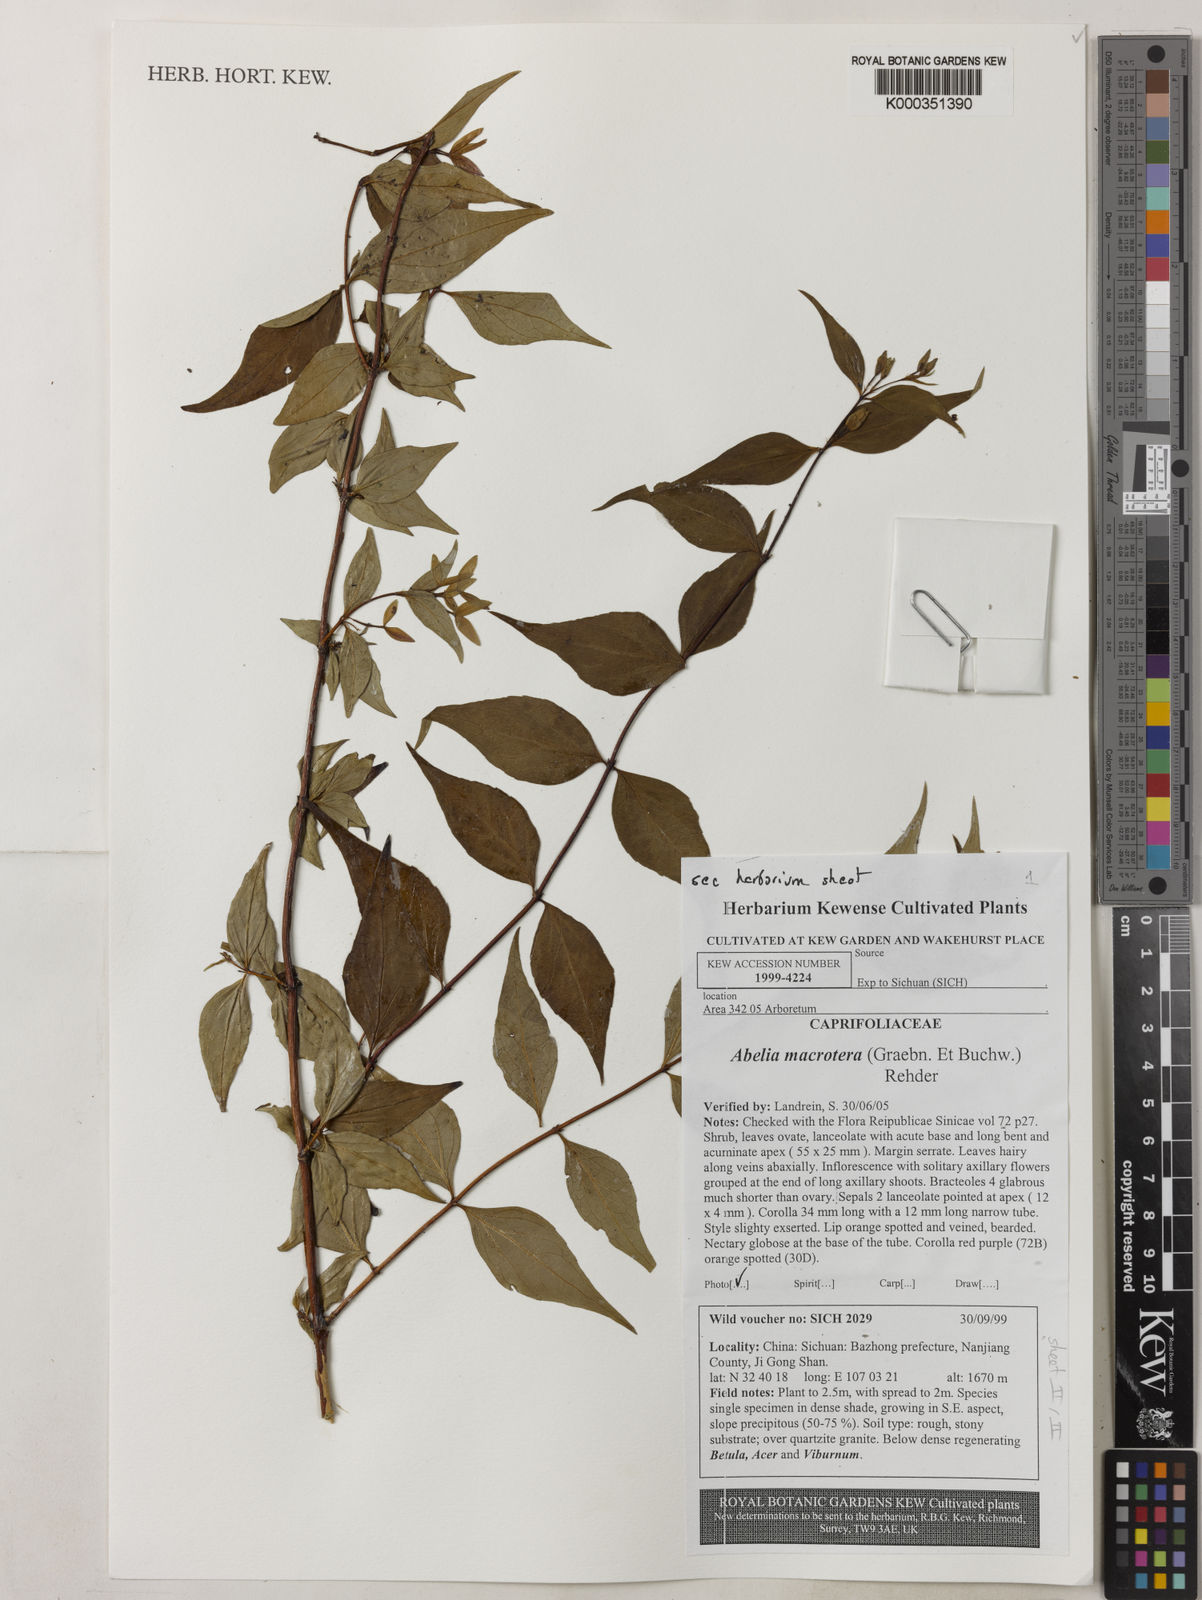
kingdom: Plantae
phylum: Tracheophyta
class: Magnoliopsida
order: Dipsacales
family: Caprifoliaceae
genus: Abelia
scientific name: Abelia macrotera
